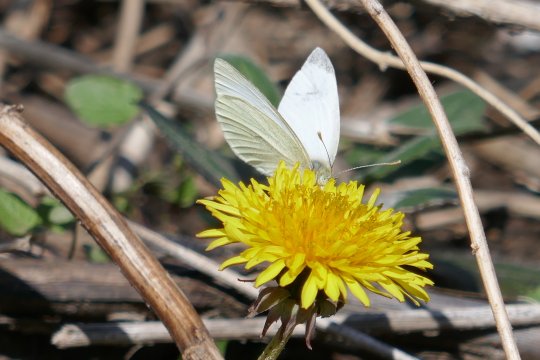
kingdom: Animalia
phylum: Arthropoda
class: Insecta
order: Lepidoptera
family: Pieridae
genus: Pieris
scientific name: Pieris rapae
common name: Cabbage White
